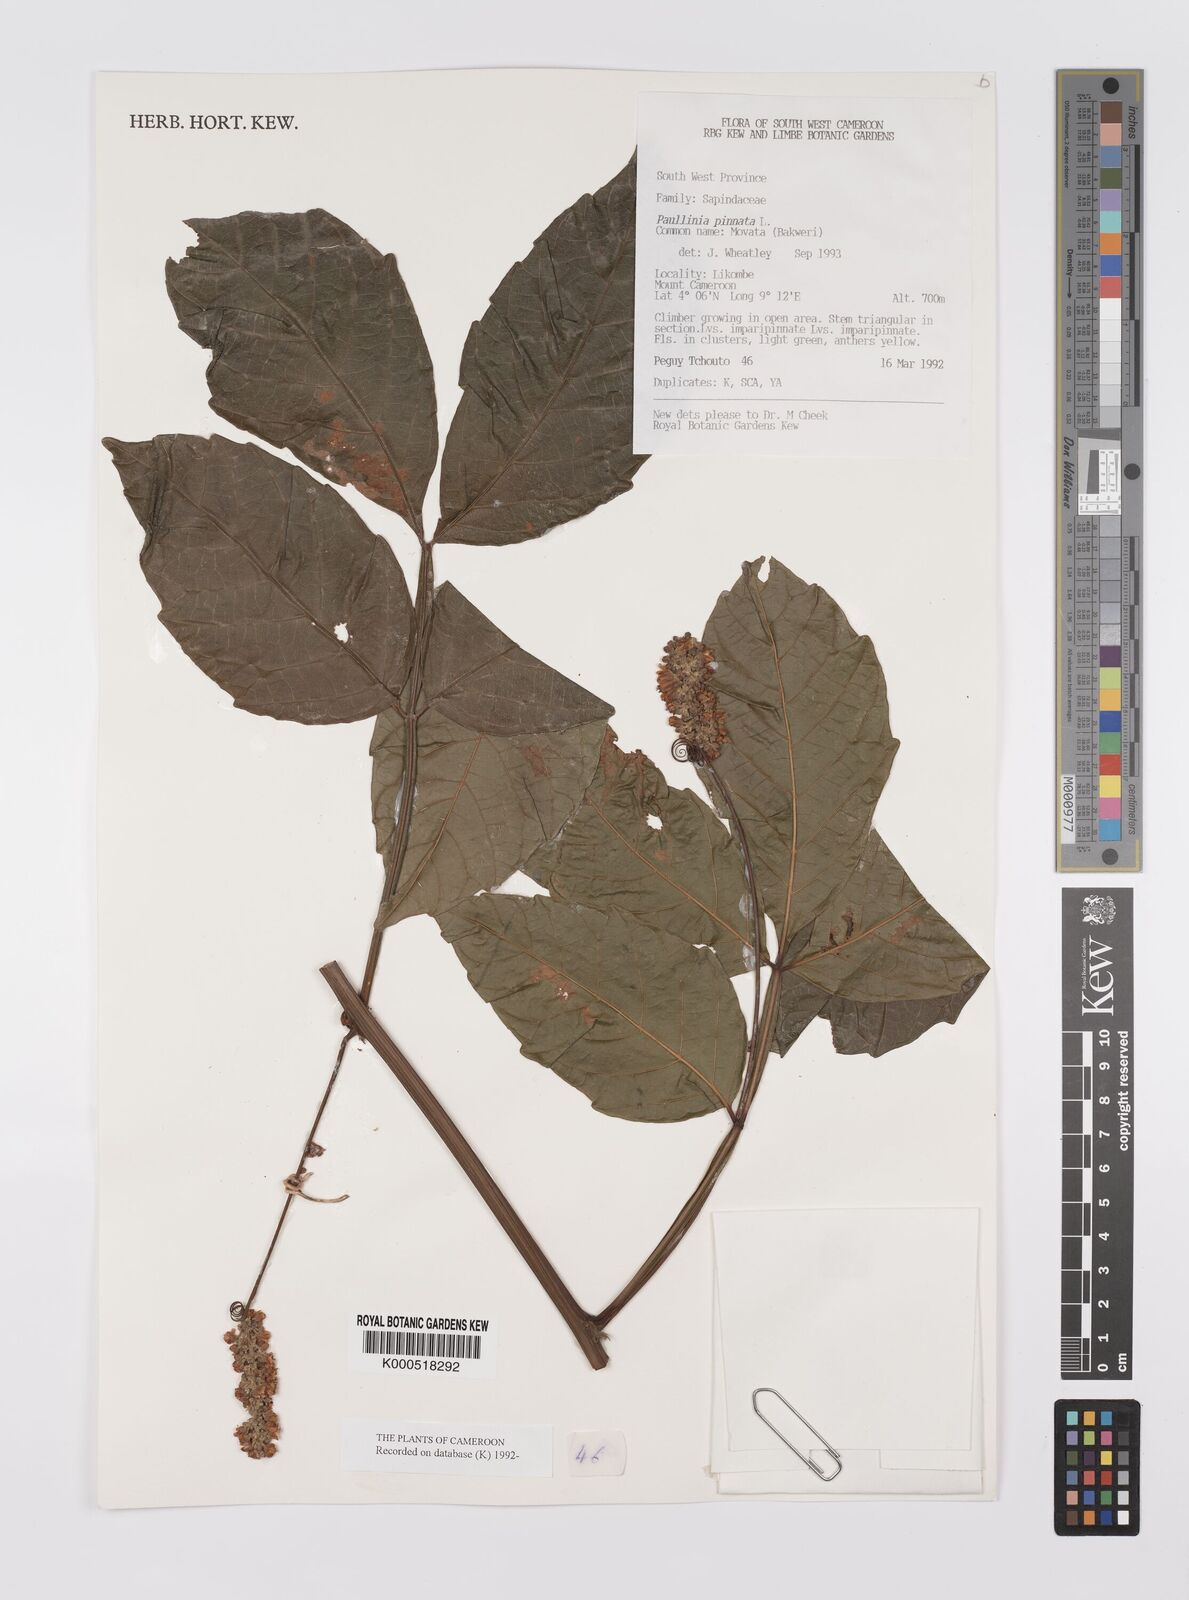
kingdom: Plantae
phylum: Tracheophyta
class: Magnoliopsida
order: Sapindales
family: Sapindaceae
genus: Paullinia
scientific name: Paullinia pinnata
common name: Barbasco
